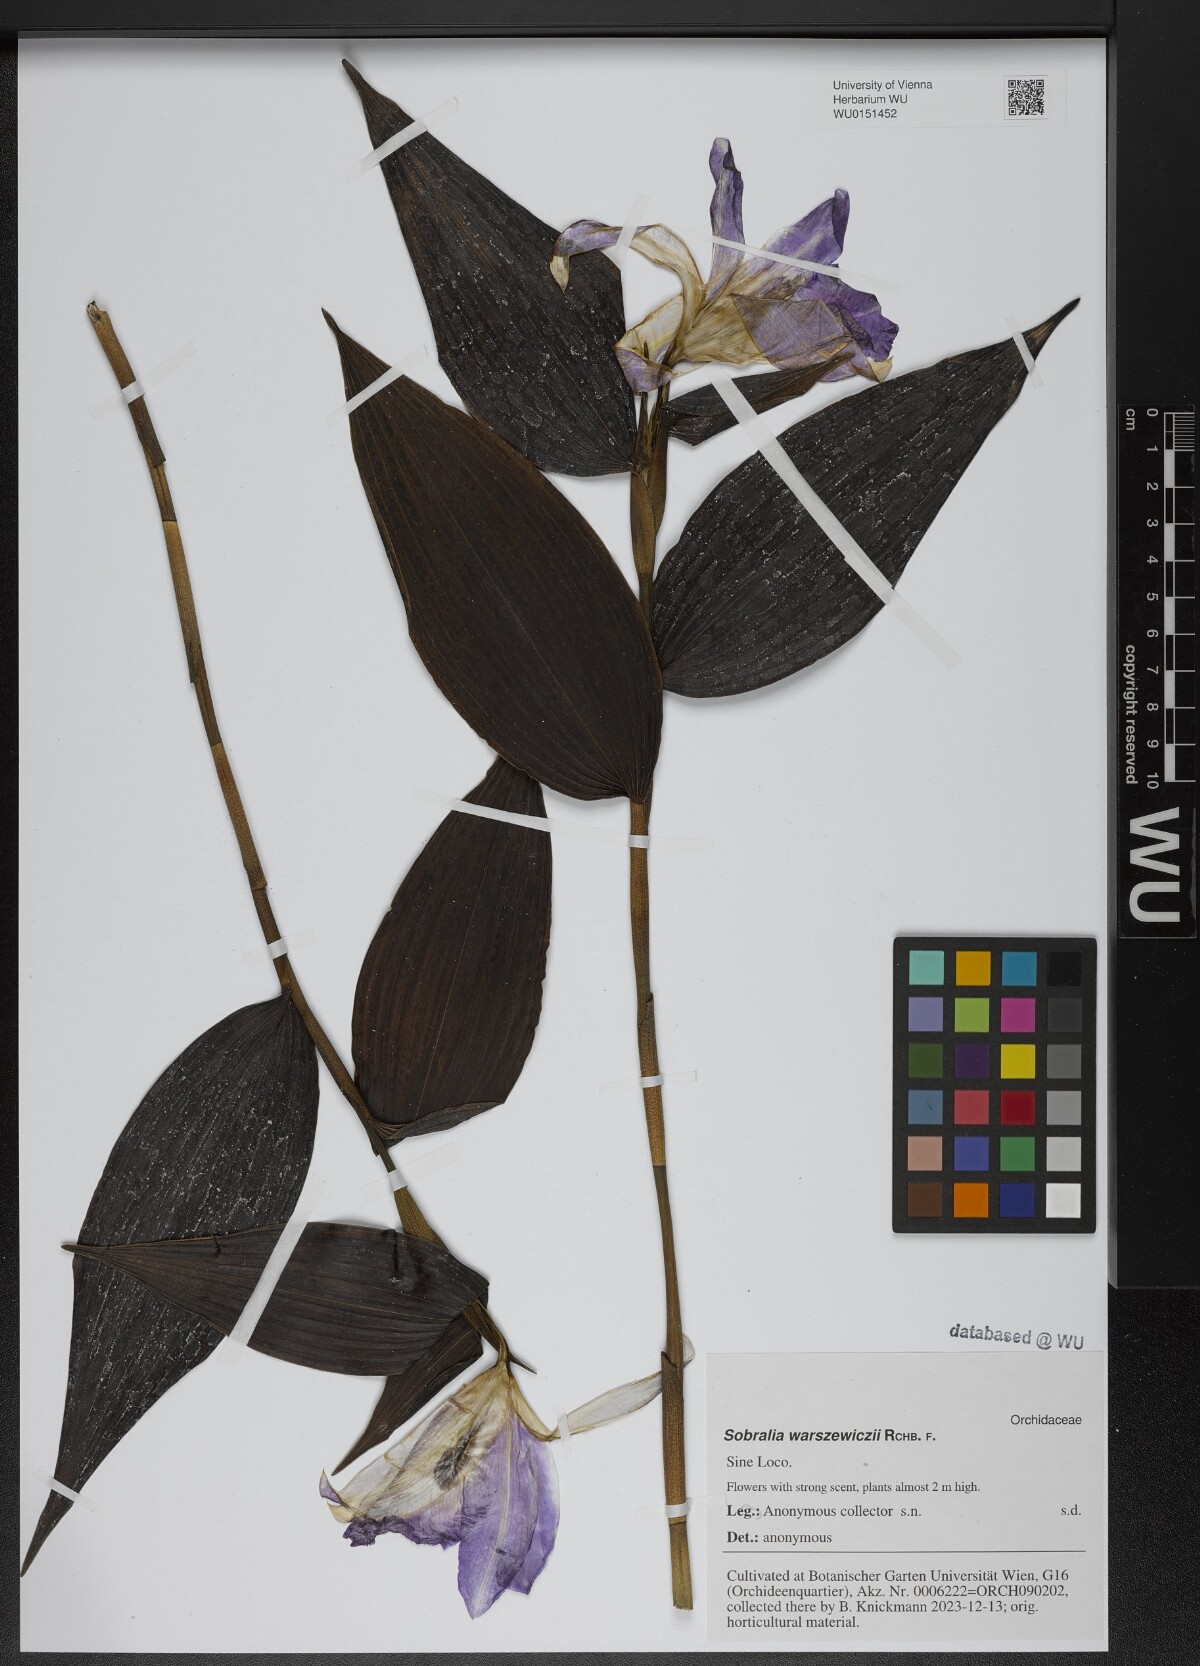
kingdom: Plantae
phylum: Tracheophyta
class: Liliopsida
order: Asparagales
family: Orchidaceae
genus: Sobralia
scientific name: Sobralia warszewiczii
